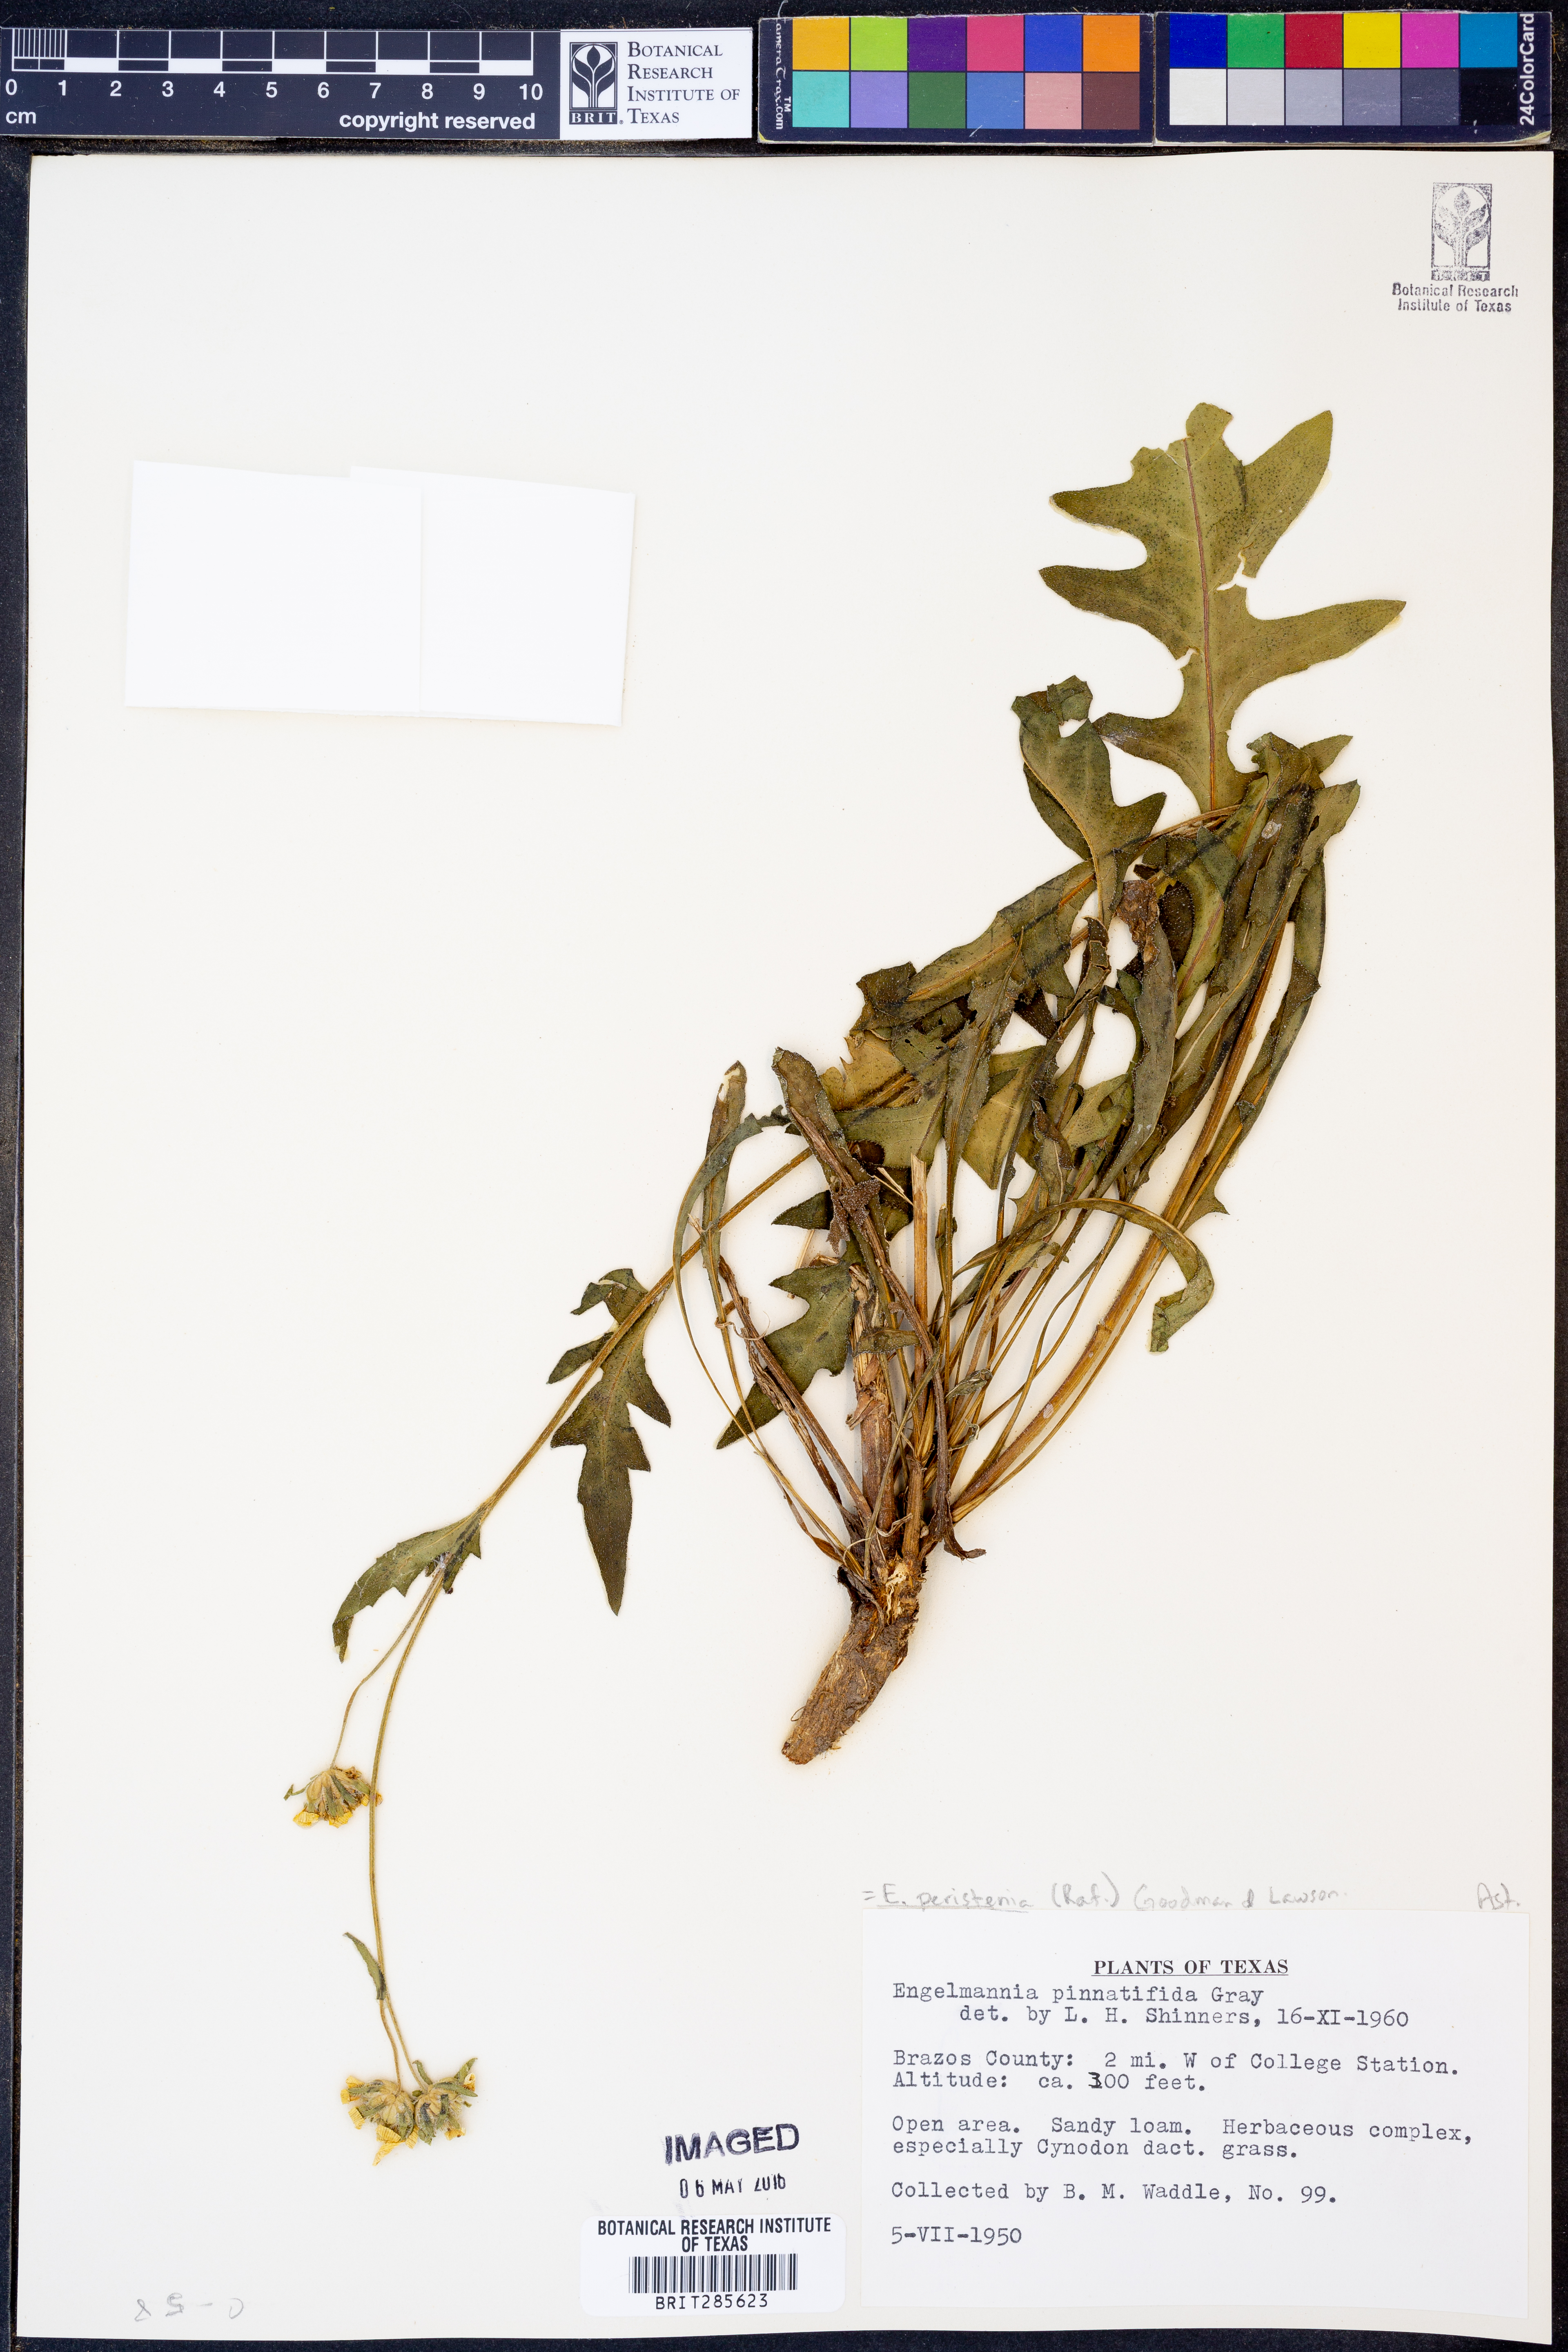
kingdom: Plantae
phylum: Tracheophyta
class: Magnoliopsida
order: Asterales
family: Asteraceae
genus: Engelmannia
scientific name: Engelmannia peristenia
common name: Engelmann's daisy
